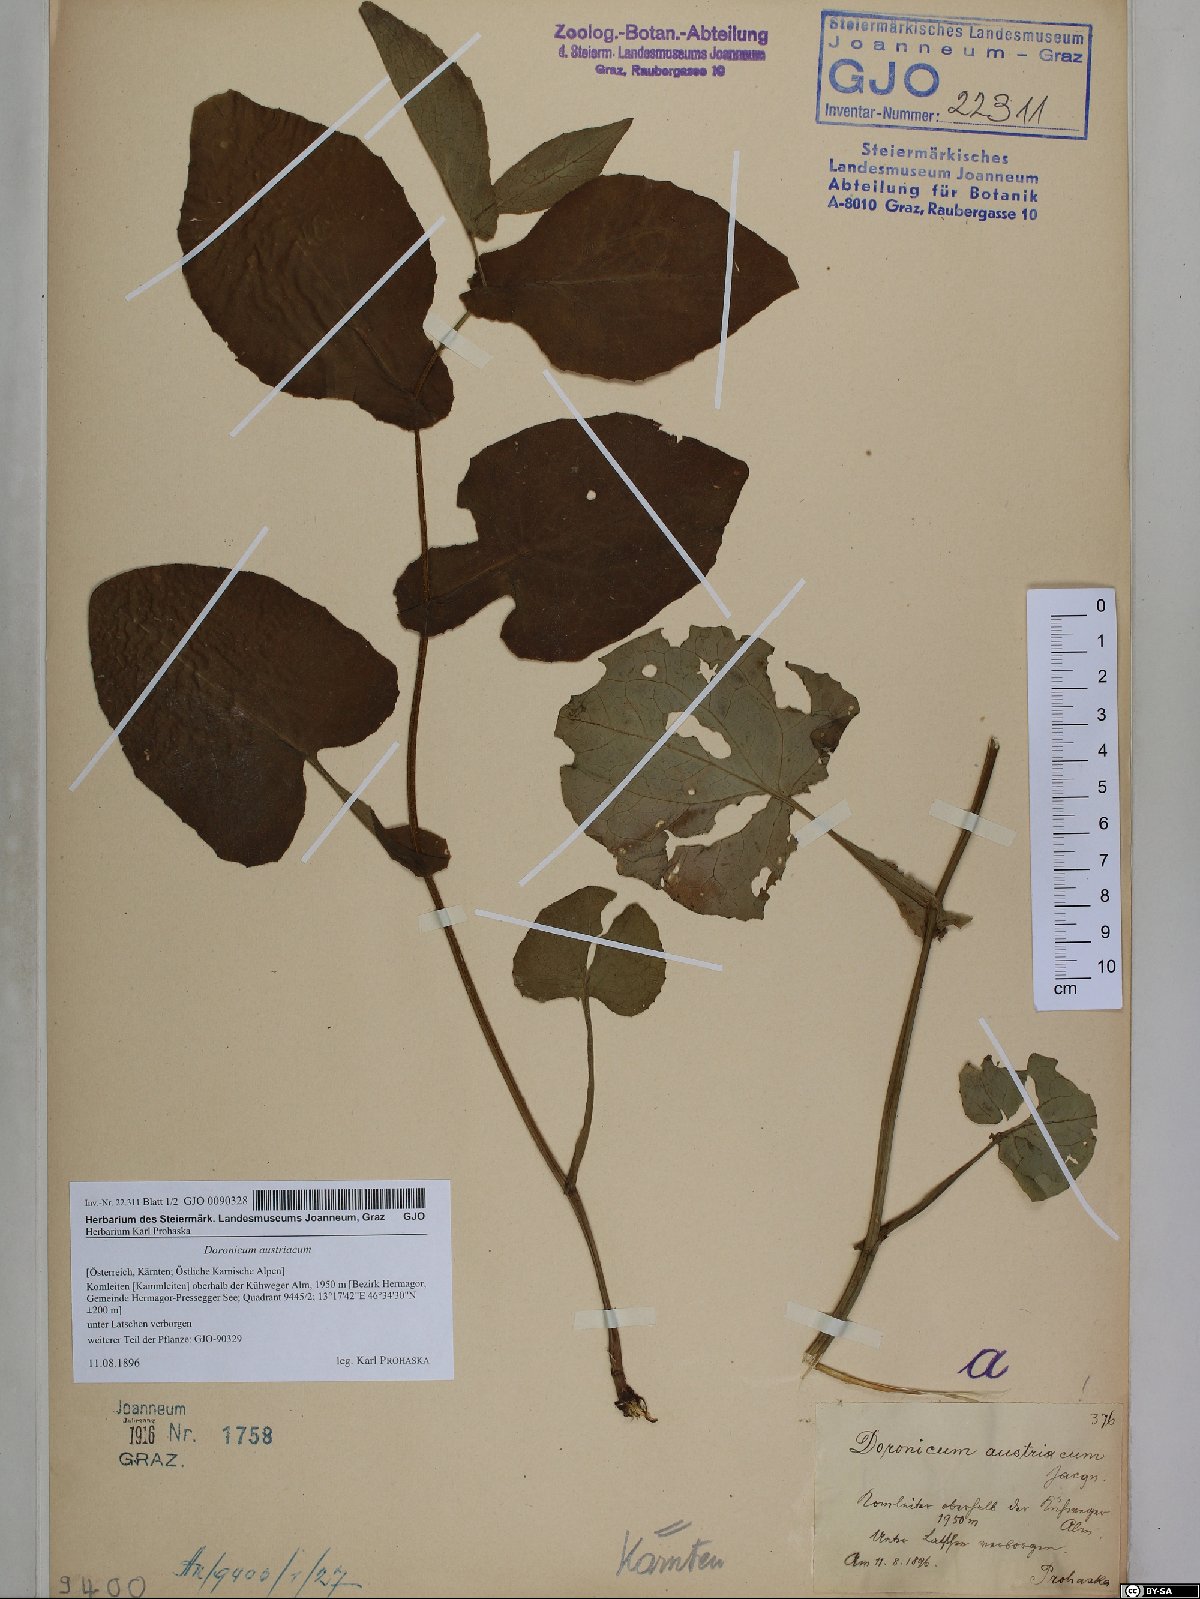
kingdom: Plantae
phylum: Tracheophyta
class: Magnoliopsida
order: Asterales
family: Asteraceae
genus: Doronicum
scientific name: Doronicum austriacum
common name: Austrian leopard's-bane
